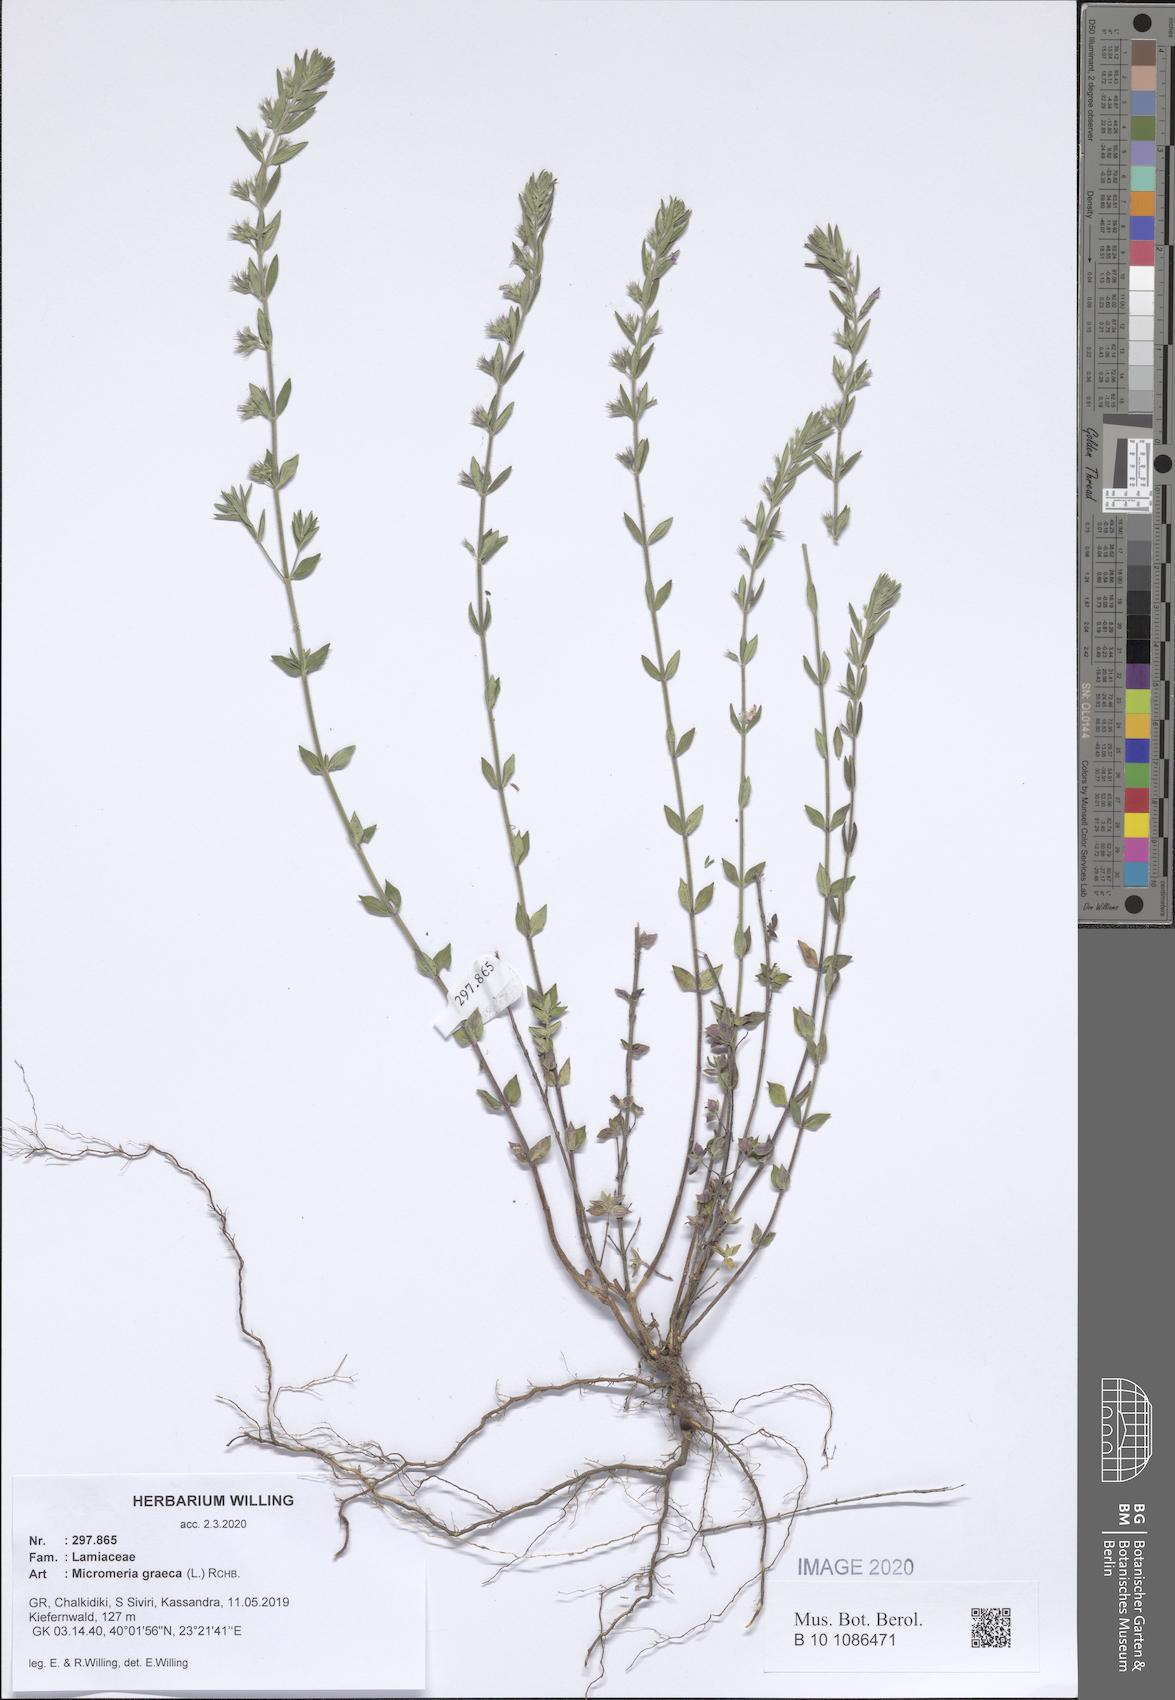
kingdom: Plantae
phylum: Tracheophyta
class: Magnoliopsida
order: Lamiales
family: Lamiaceae
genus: Micromeria
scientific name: Micromeria graeca
